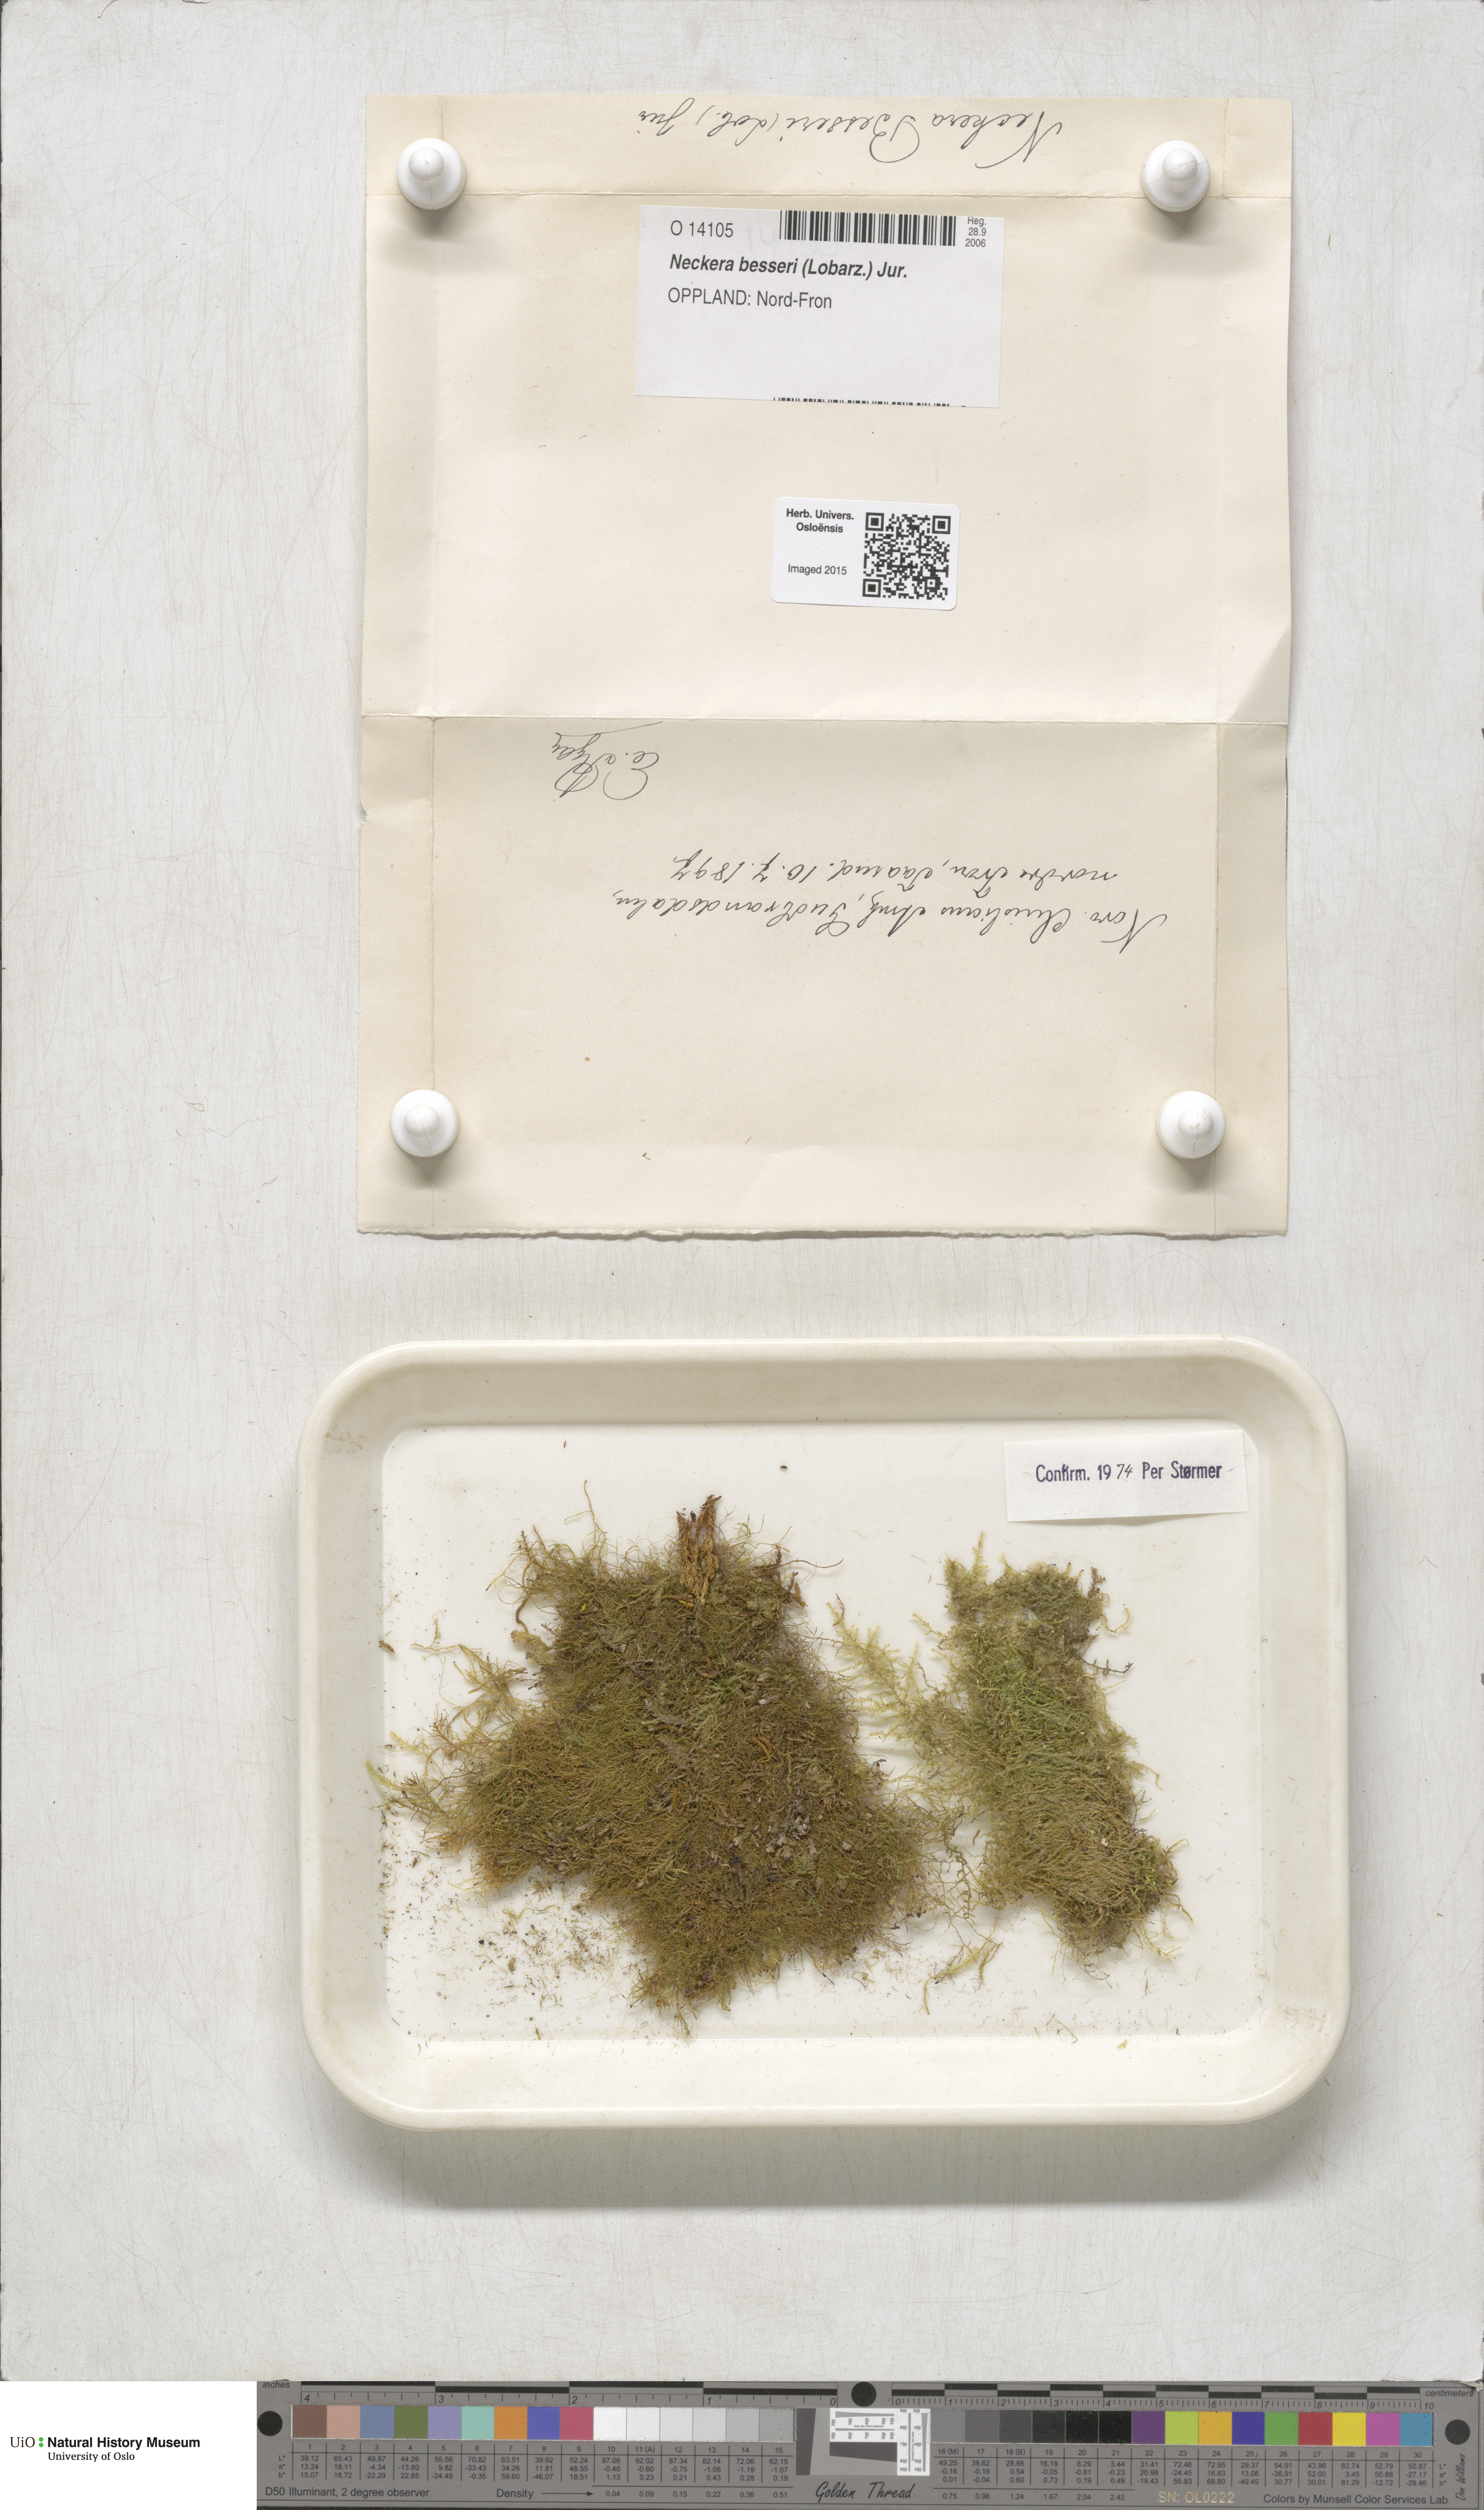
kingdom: Plantae
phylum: Bryophyta
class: Bryopsida
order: Hypnales
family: Neckeraceae
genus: Alleniella
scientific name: Alleniella besseri
